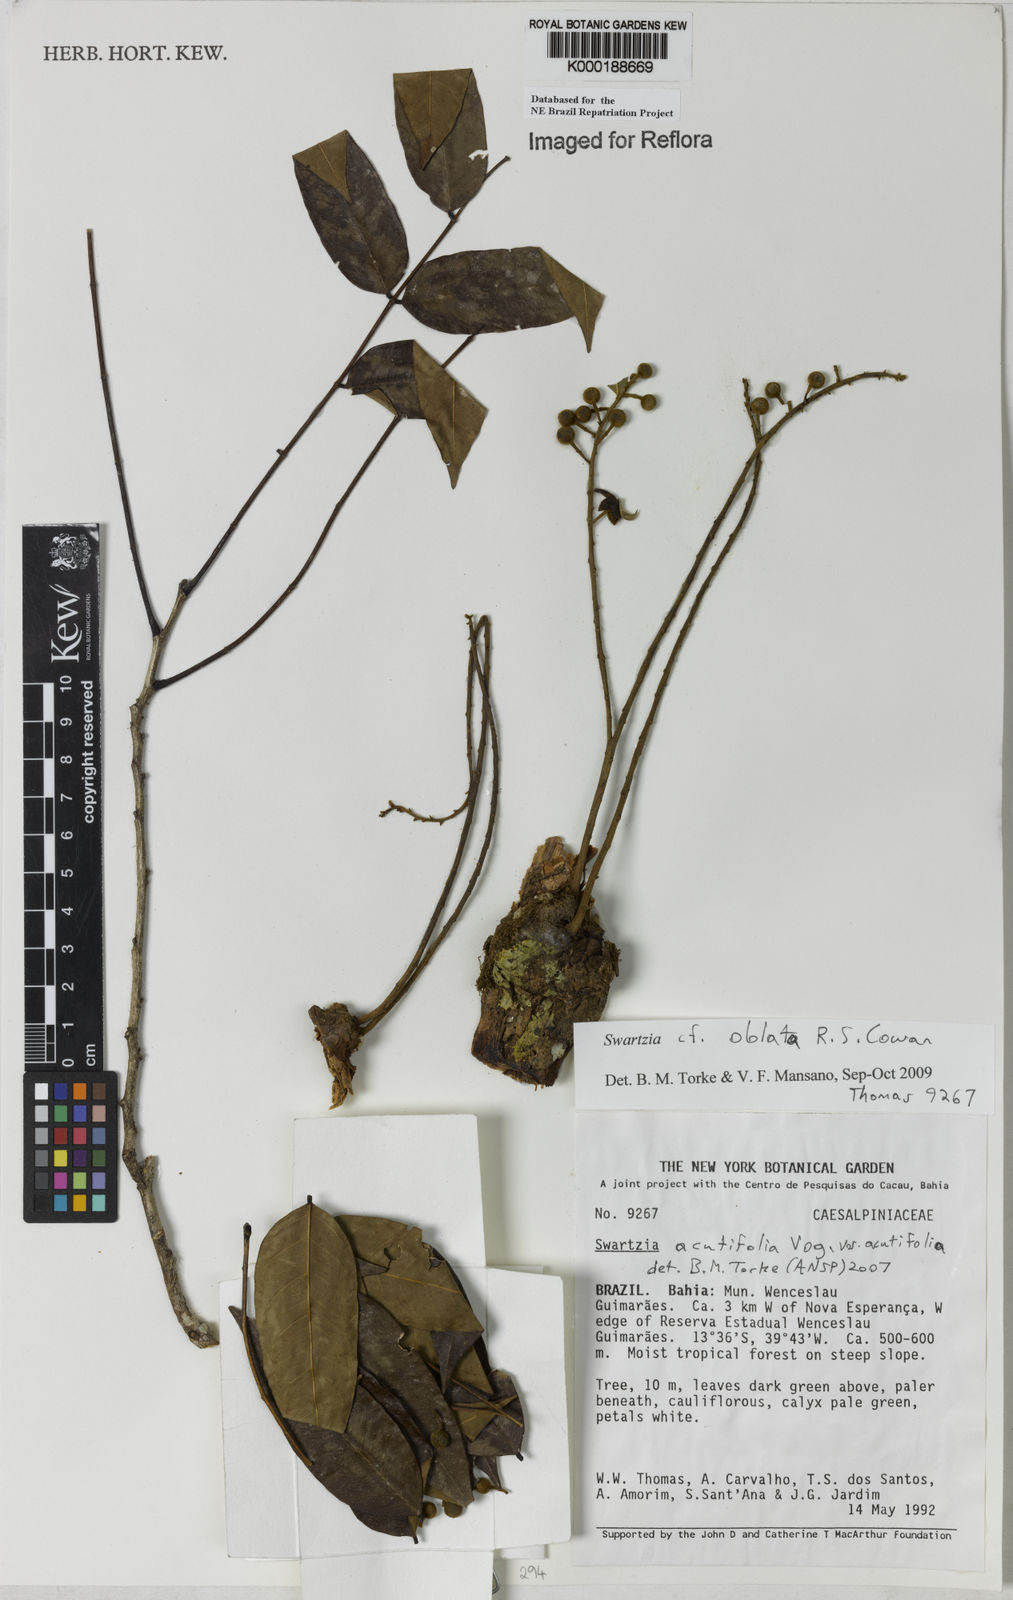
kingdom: Plantae
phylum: Tracheophyta
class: Magnoliopsida
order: Fabales
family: Fabaceae
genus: Swartzia
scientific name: Swartzia
